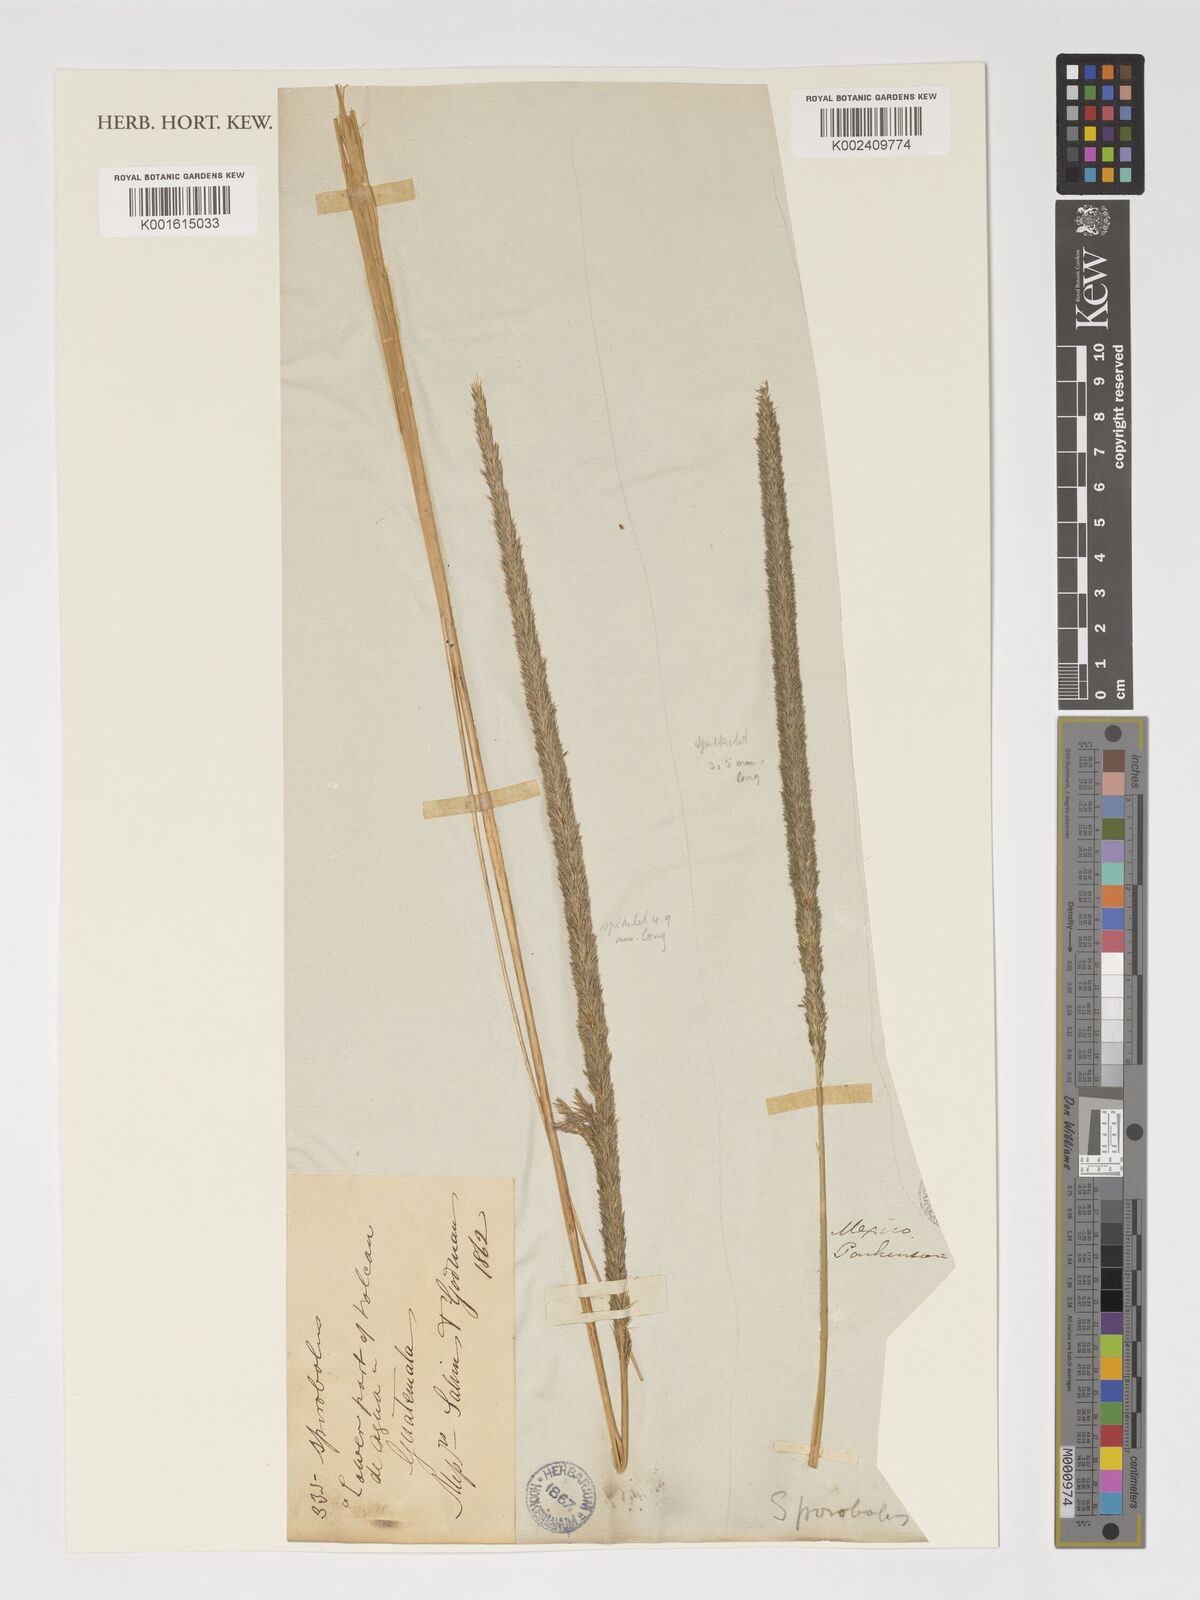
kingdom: Plantae
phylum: Tracheophyta
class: Liliopsida
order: Poales
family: Poaceae
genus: Sporobolus
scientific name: Sporobolus
